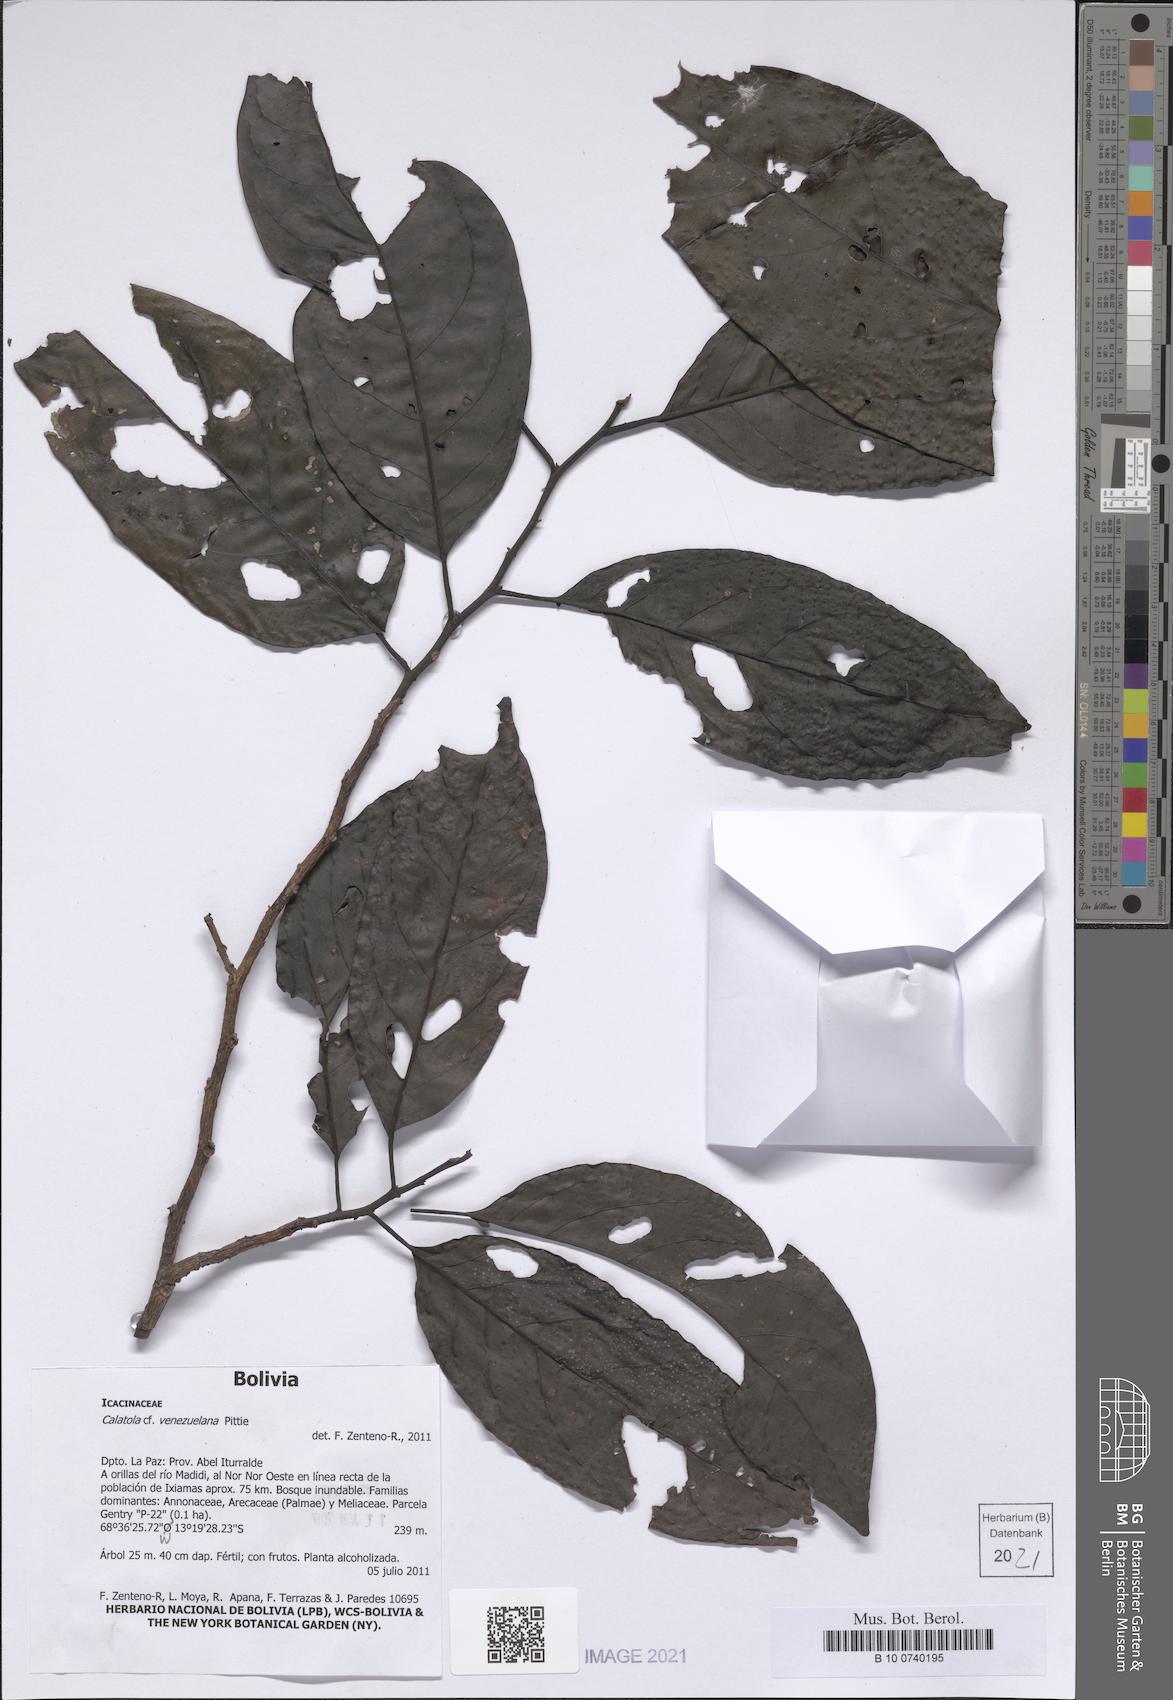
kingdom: Plantae
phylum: Tracheophyta
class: Magnoliopsida
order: Metteniusales
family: Metteniusaceae
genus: Calatola
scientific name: Calatola costaricensis
